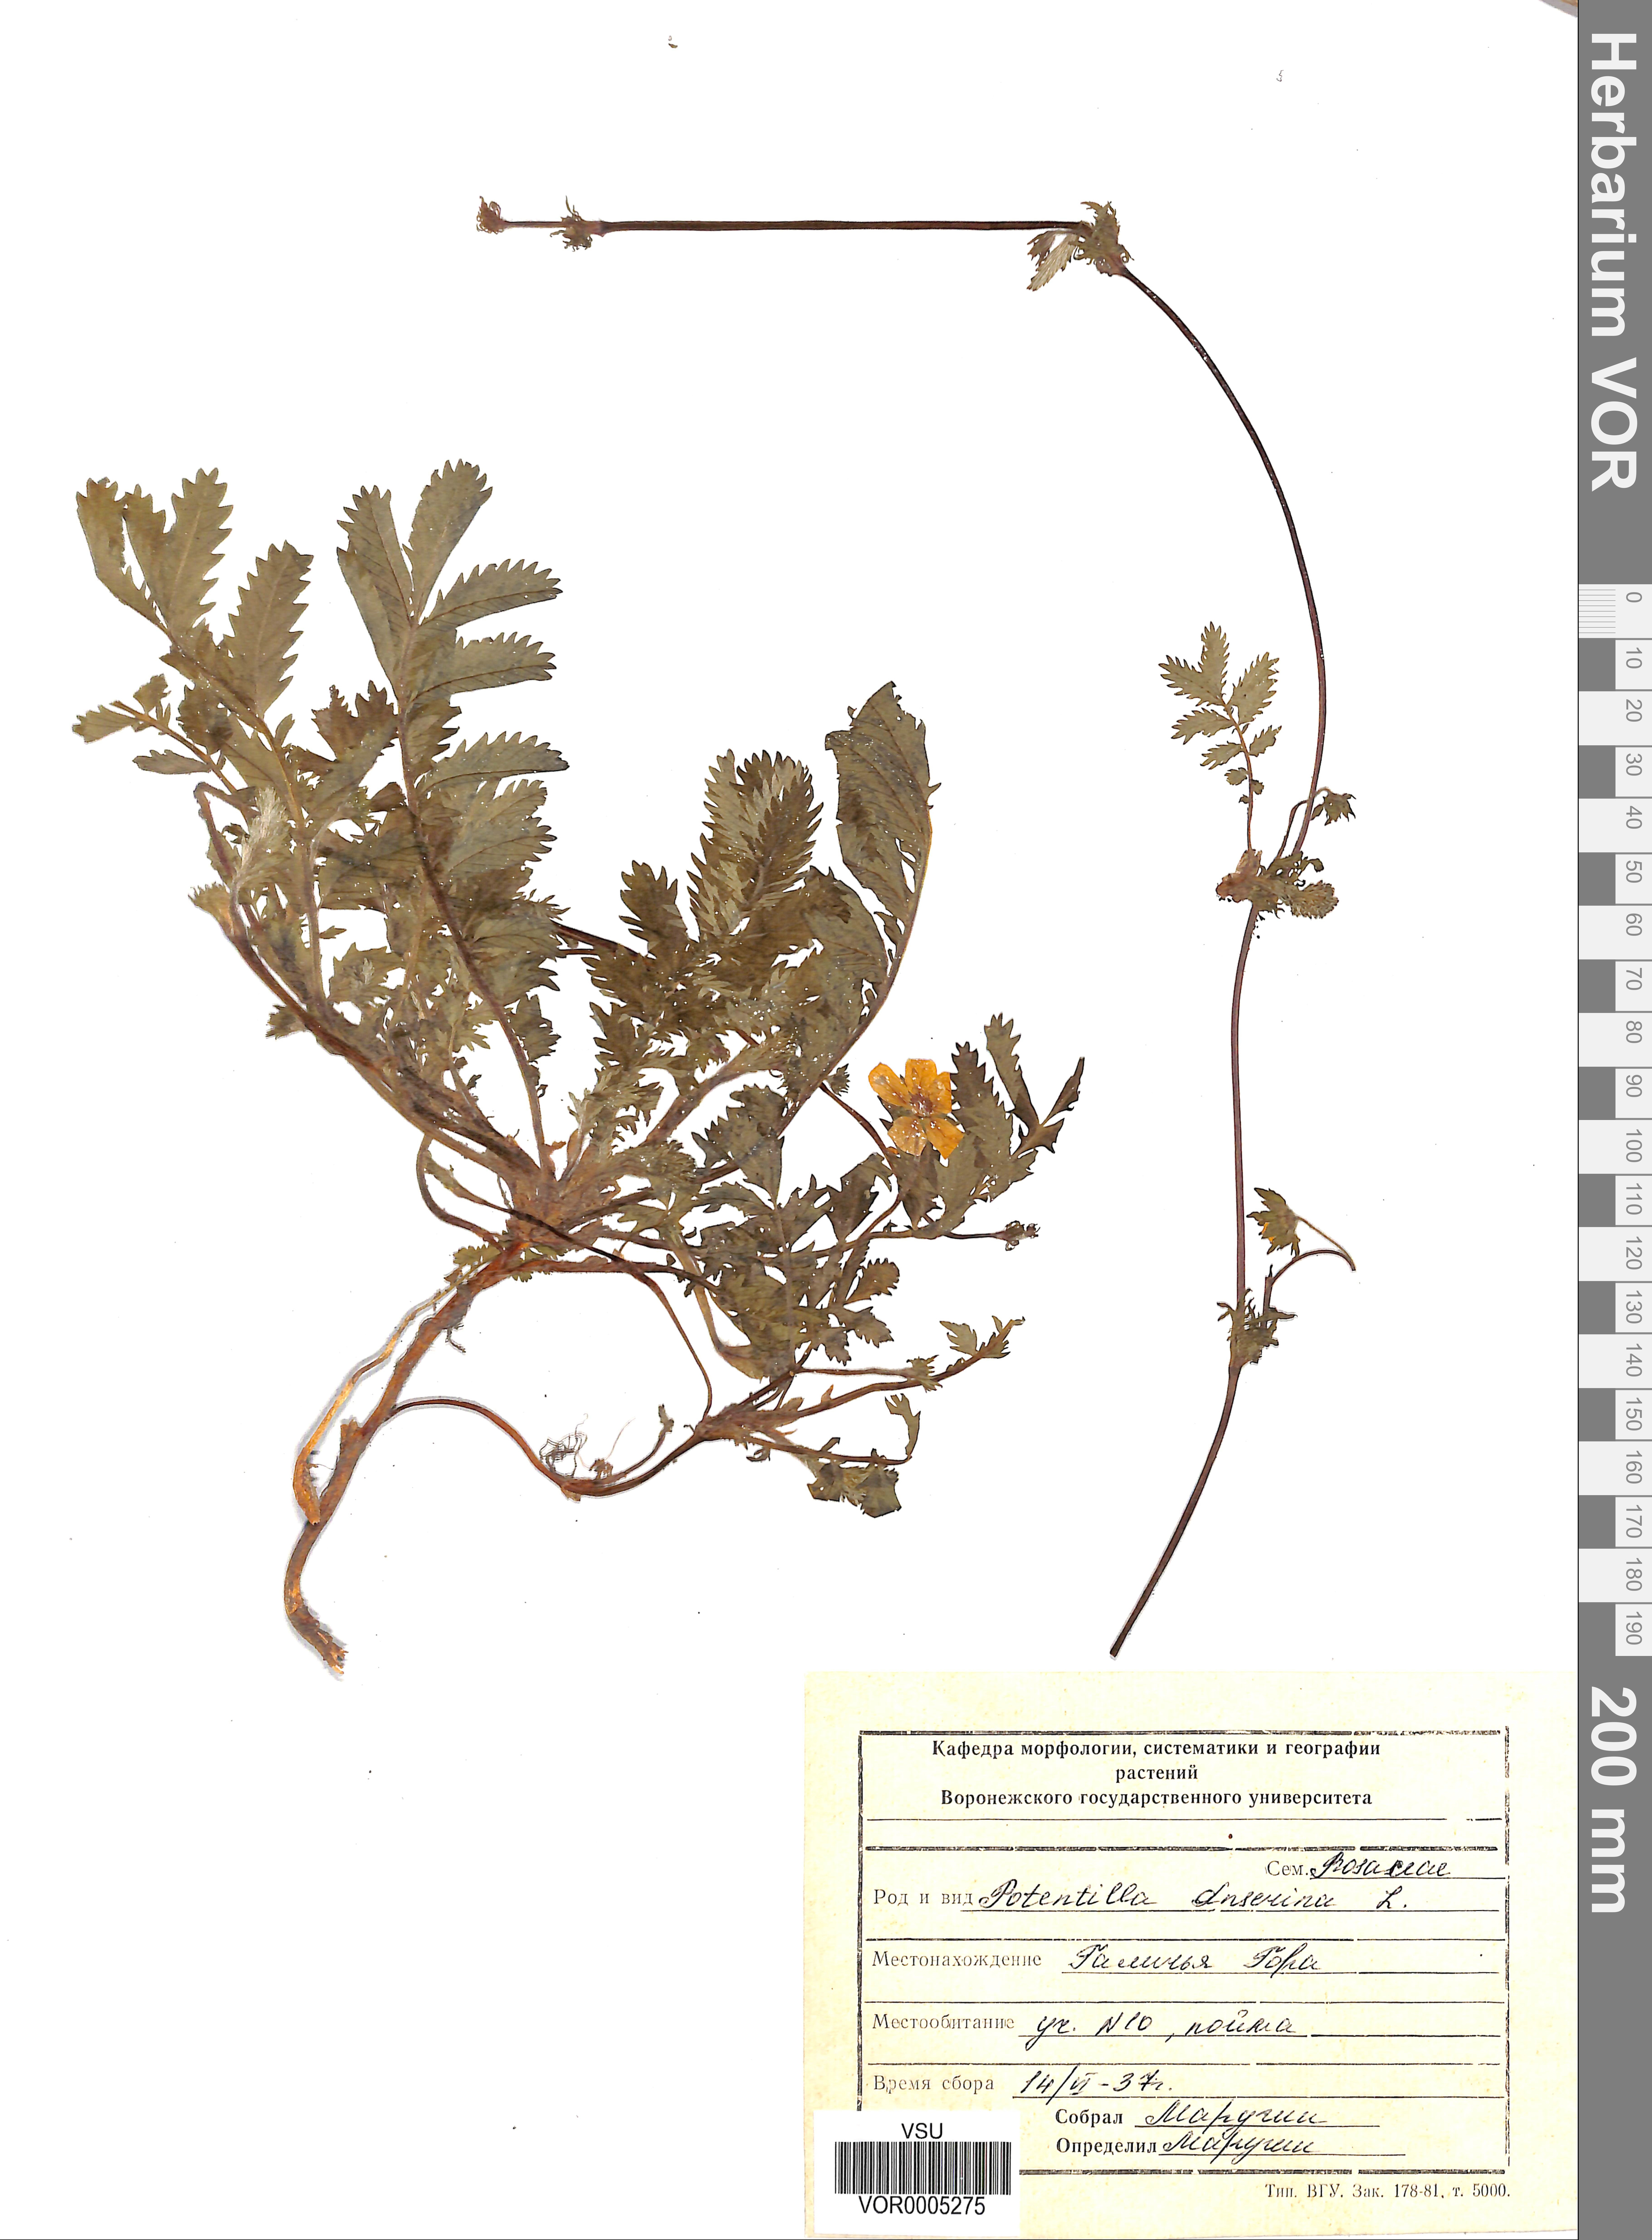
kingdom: Plantae
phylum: Tracheophyta
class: Magnoliopsida
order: Rosales
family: Rosaceae
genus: Argentina
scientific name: Argentina anserina
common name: Common silverweed
